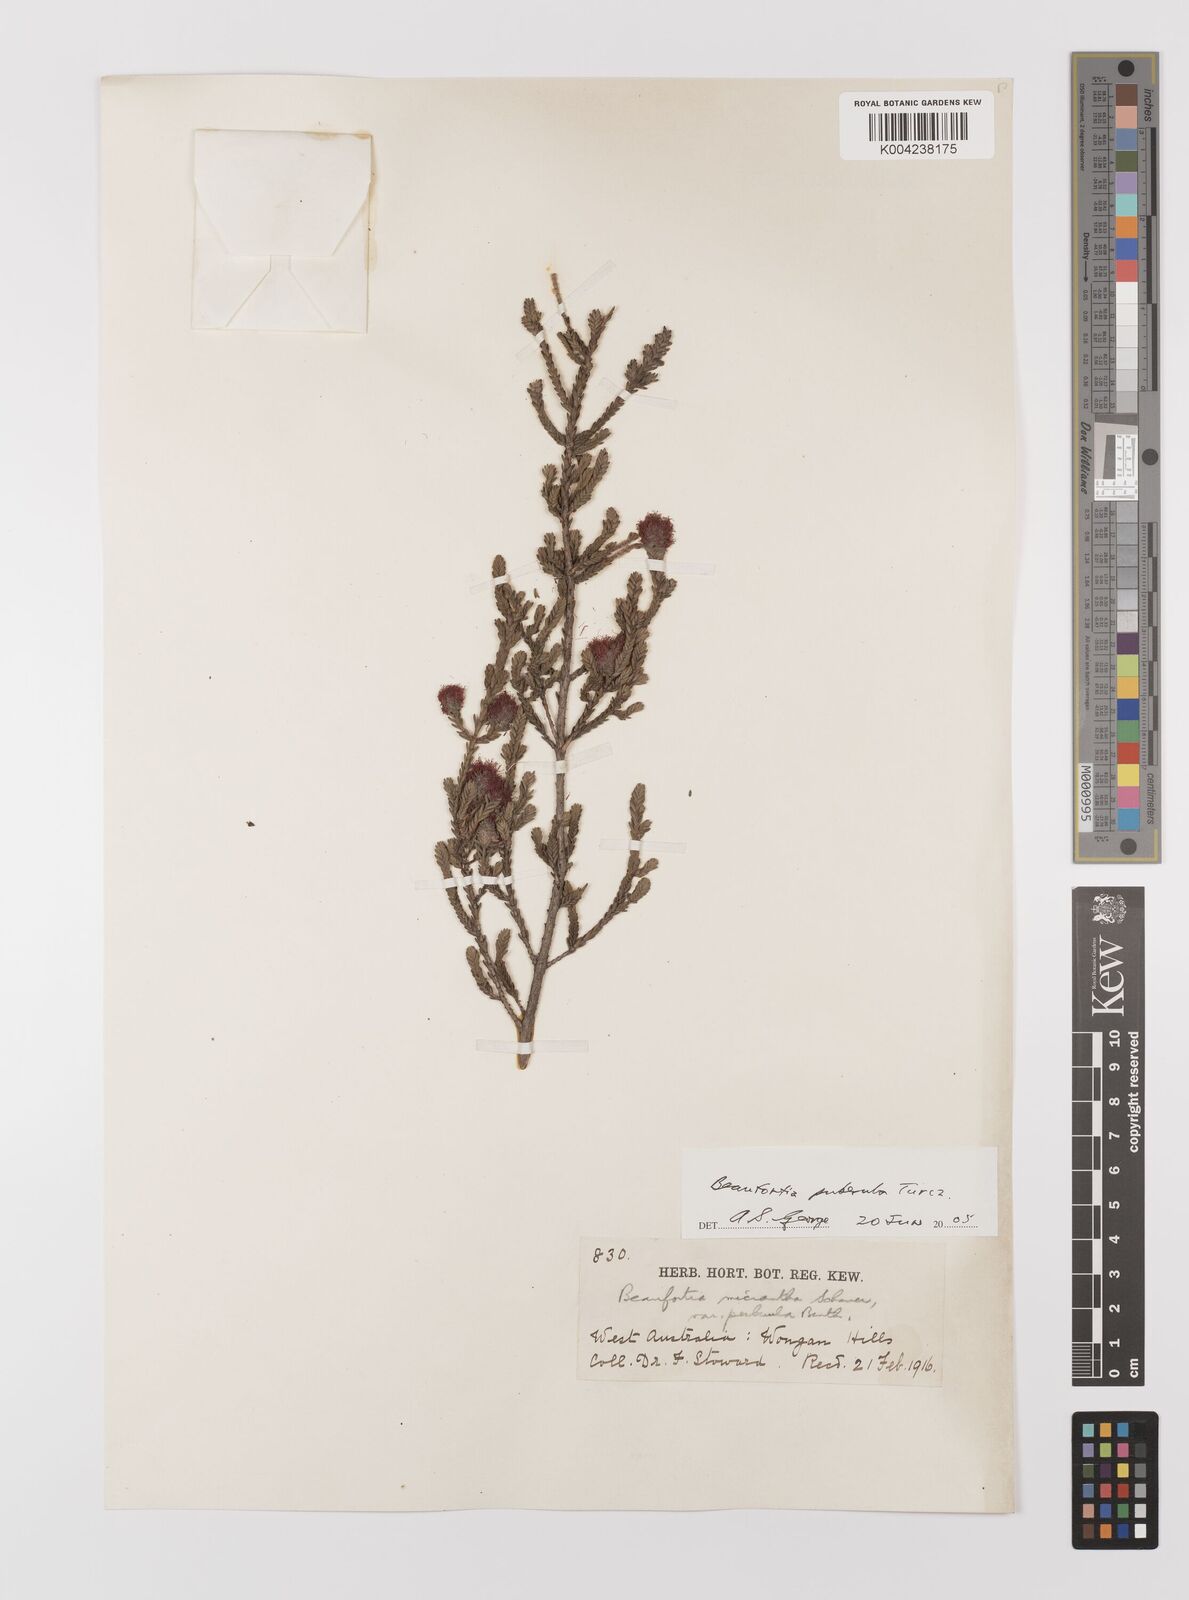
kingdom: Plantae
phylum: Tracheophyta
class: Magnoliopsida
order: Myrtales
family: Myrtaceae
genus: Melaleuca
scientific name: Melaleuca micrantha
